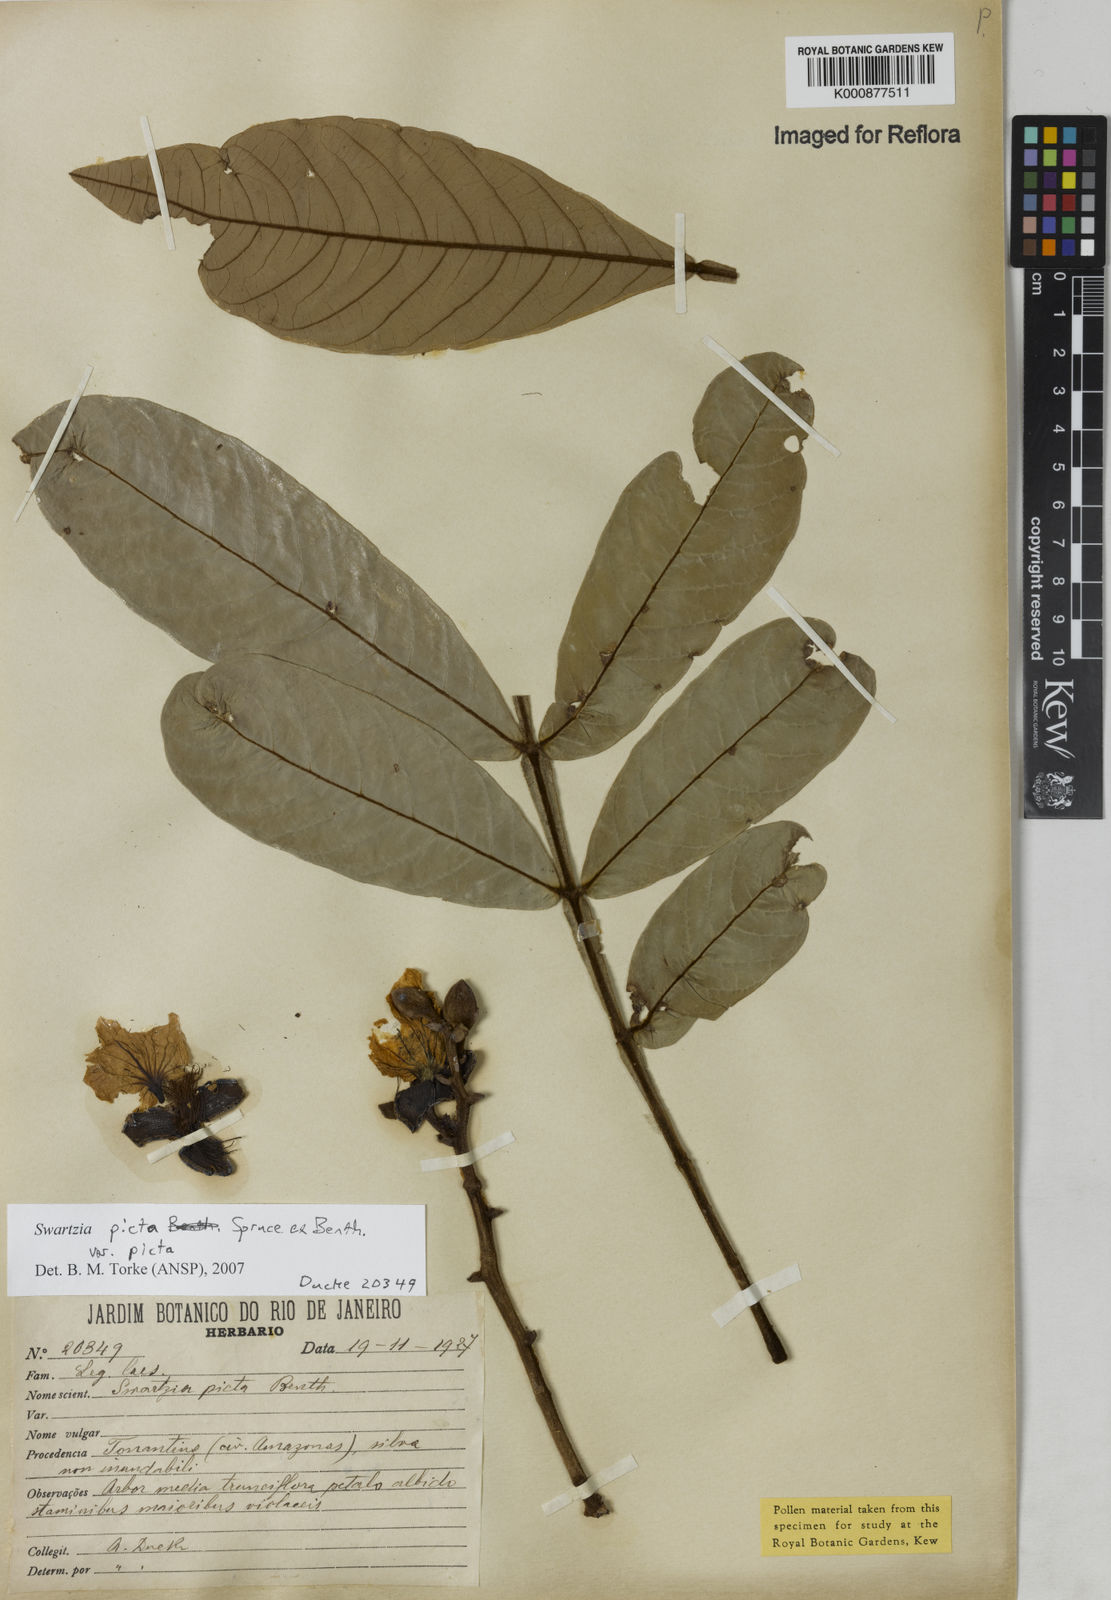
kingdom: Plantae
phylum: Tracheophyta
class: Magnoliopsida
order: Fabales
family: Fabaceae
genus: Swartzia
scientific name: Swartzia picta
